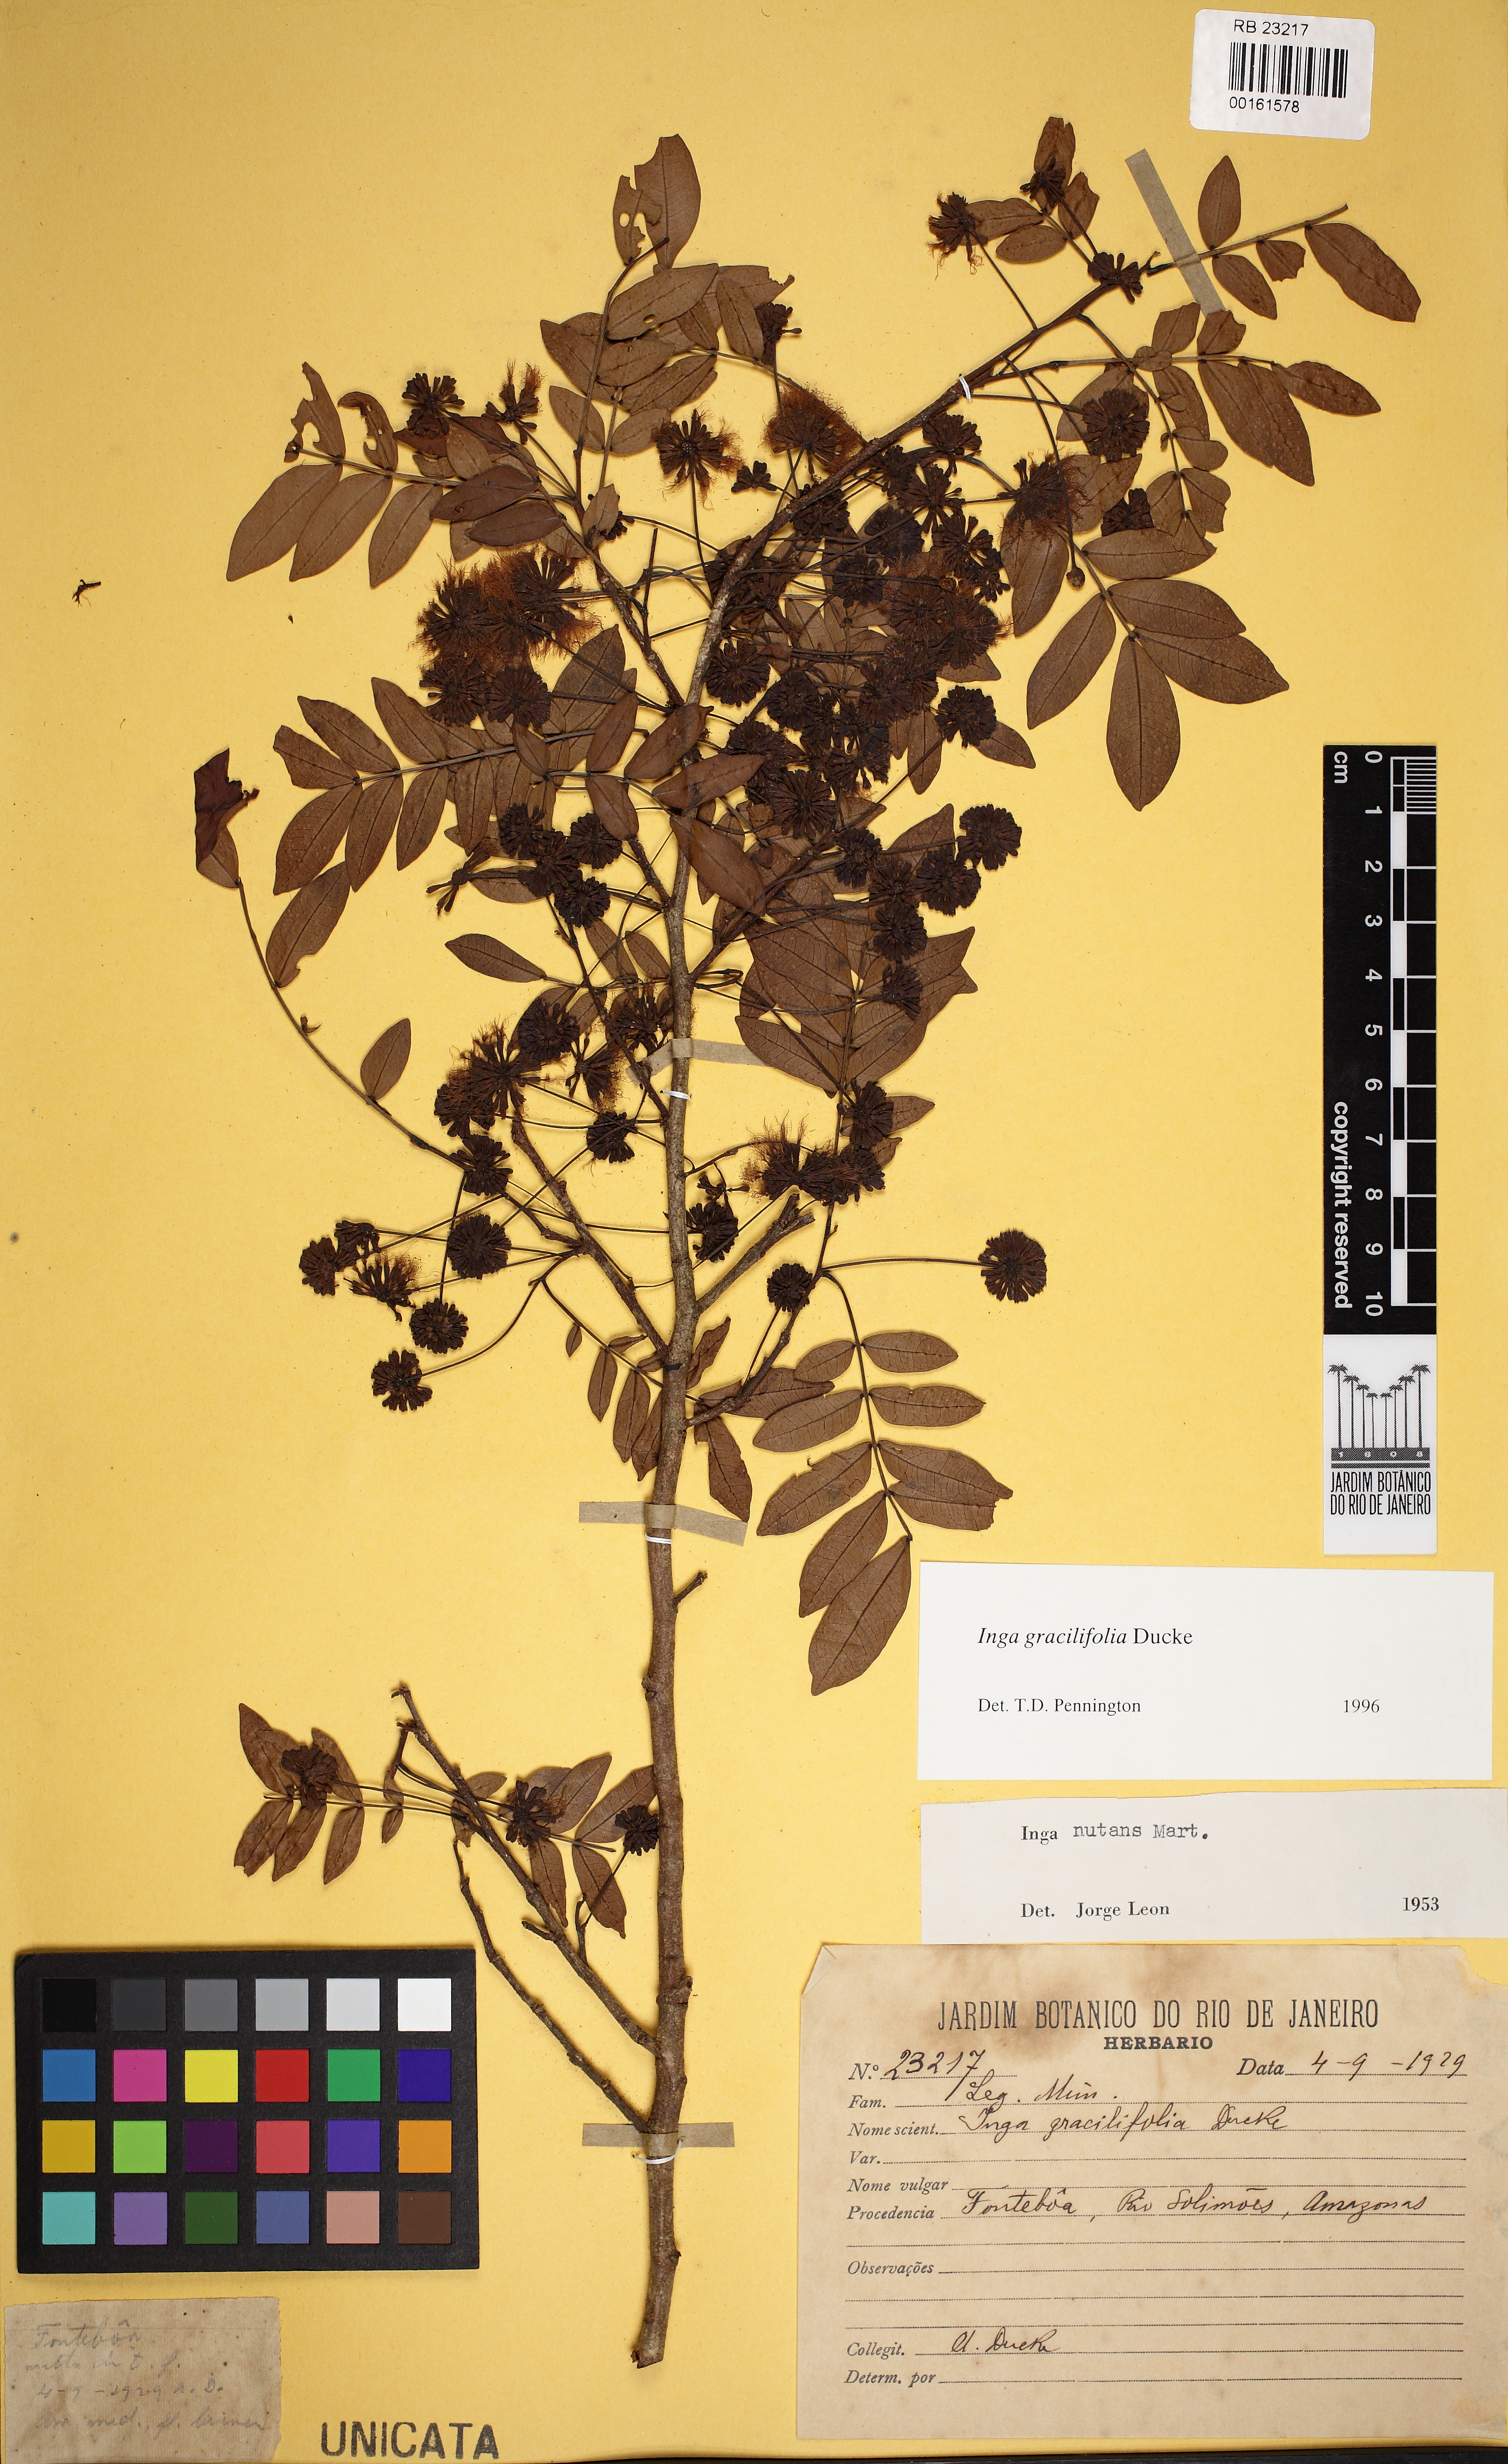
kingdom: Plantae
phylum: Tracheophyta
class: Magnoliopsida
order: Fabales
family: Fabaceae
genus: Inga
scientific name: Inga gracilifolia
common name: Gracefulleaf inga
